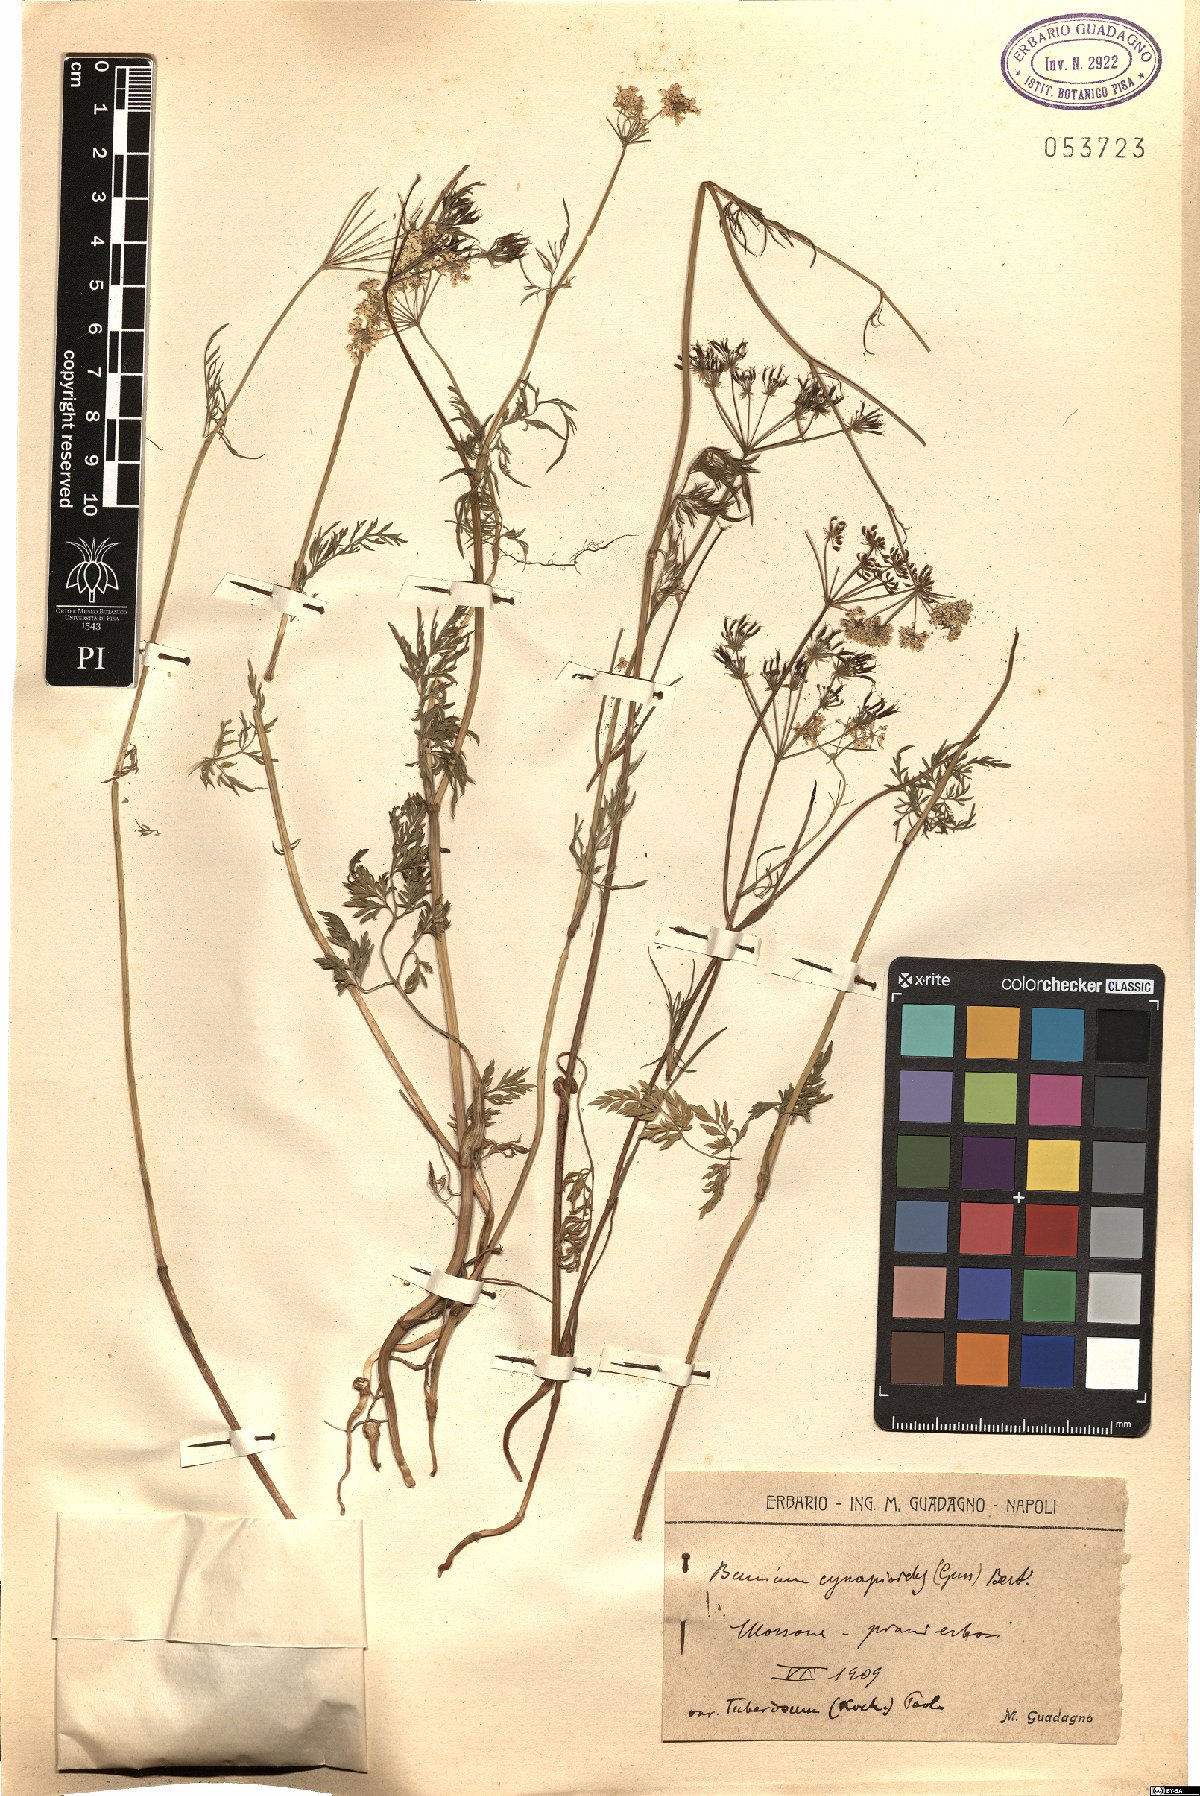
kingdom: Plantae
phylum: Tracheophyta
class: Magnoliopsida
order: Apiales
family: Apiaceae
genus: Geocaryum
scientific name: Geocaryum cynapioides
